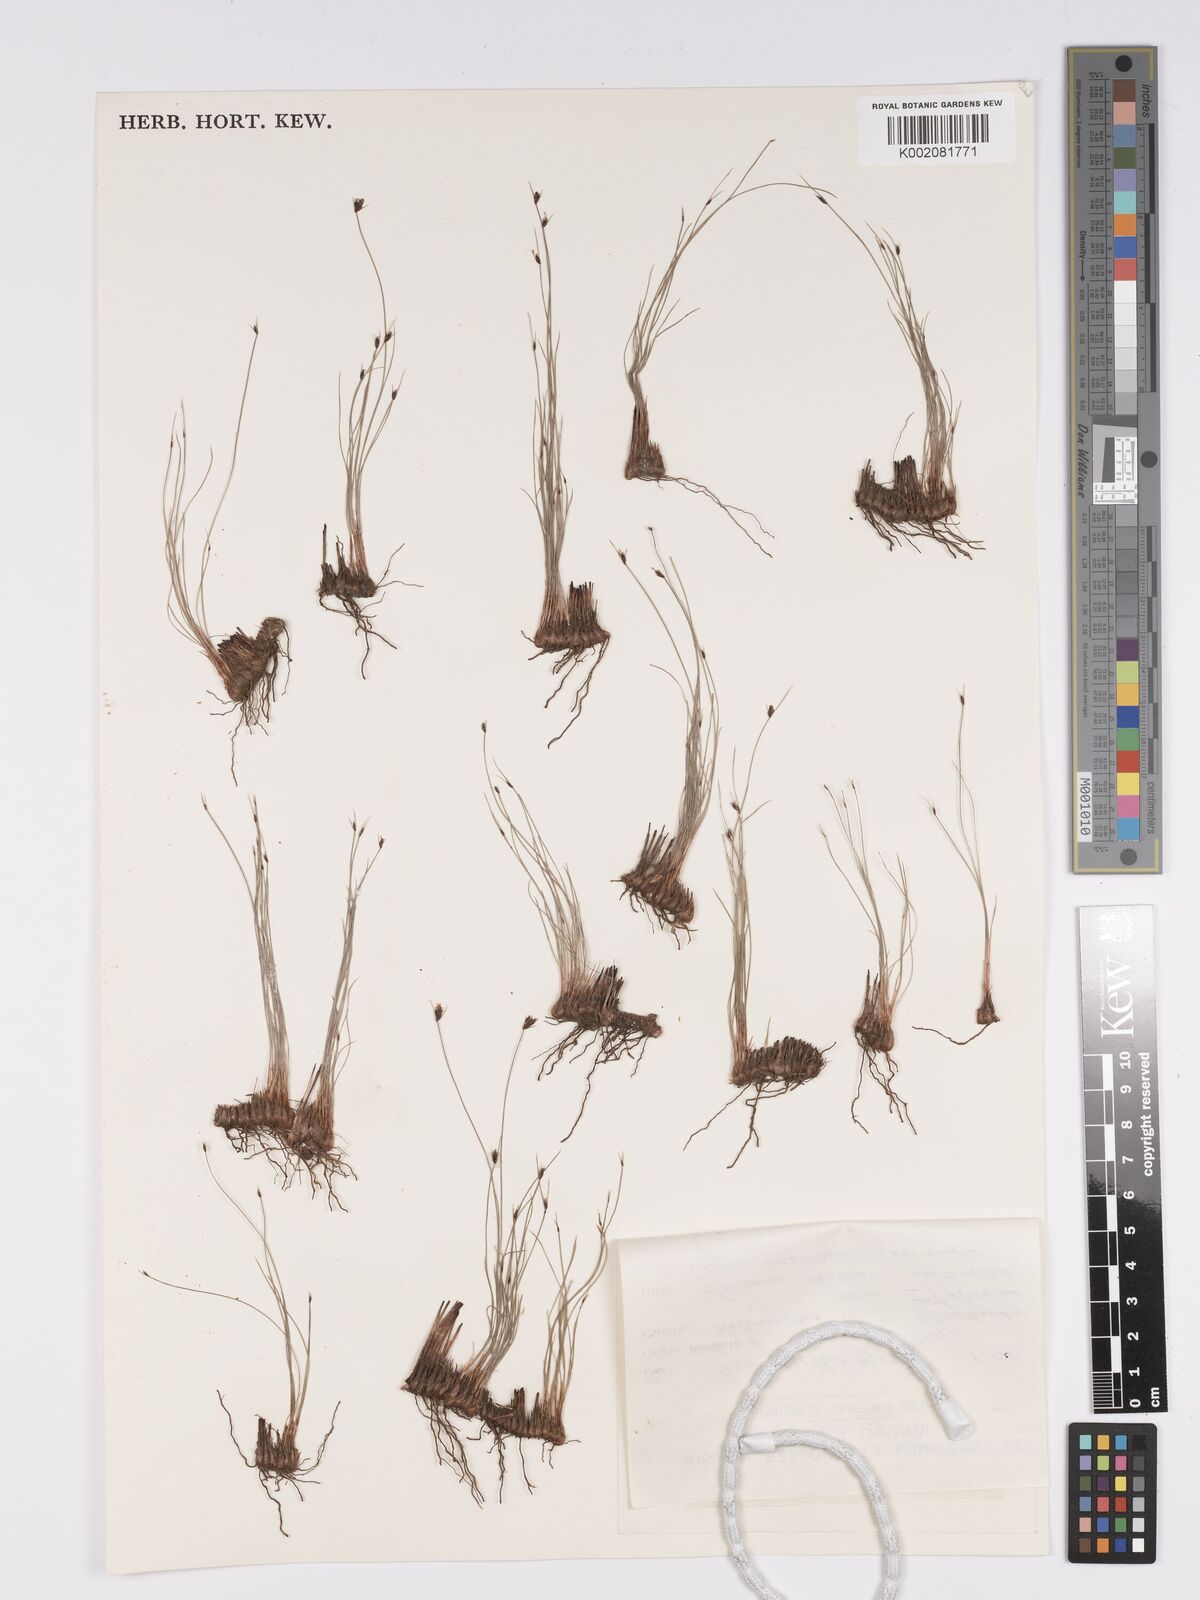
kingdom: Plantae
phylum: Tracheophyta
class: Liliopsida
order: Poales
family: Cyperaceae
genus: Bulbostylis
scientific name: Bulbostylis oritrephes
